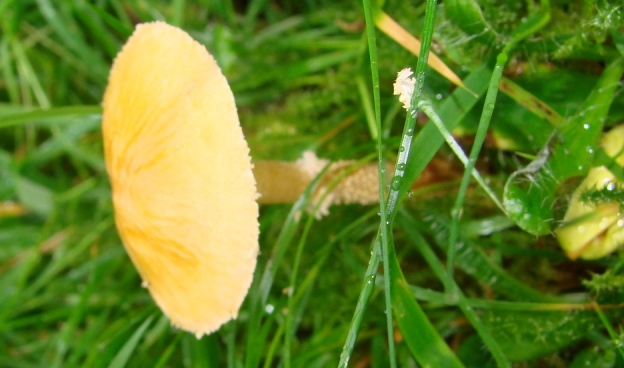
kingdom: Fungi
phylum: Basidiomycota
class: Agaricomycetes
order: Agaricales
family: Tricholomataceae
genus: Cystoderma
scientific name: Cystoderma amianthinum
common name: okkergul grynhat
